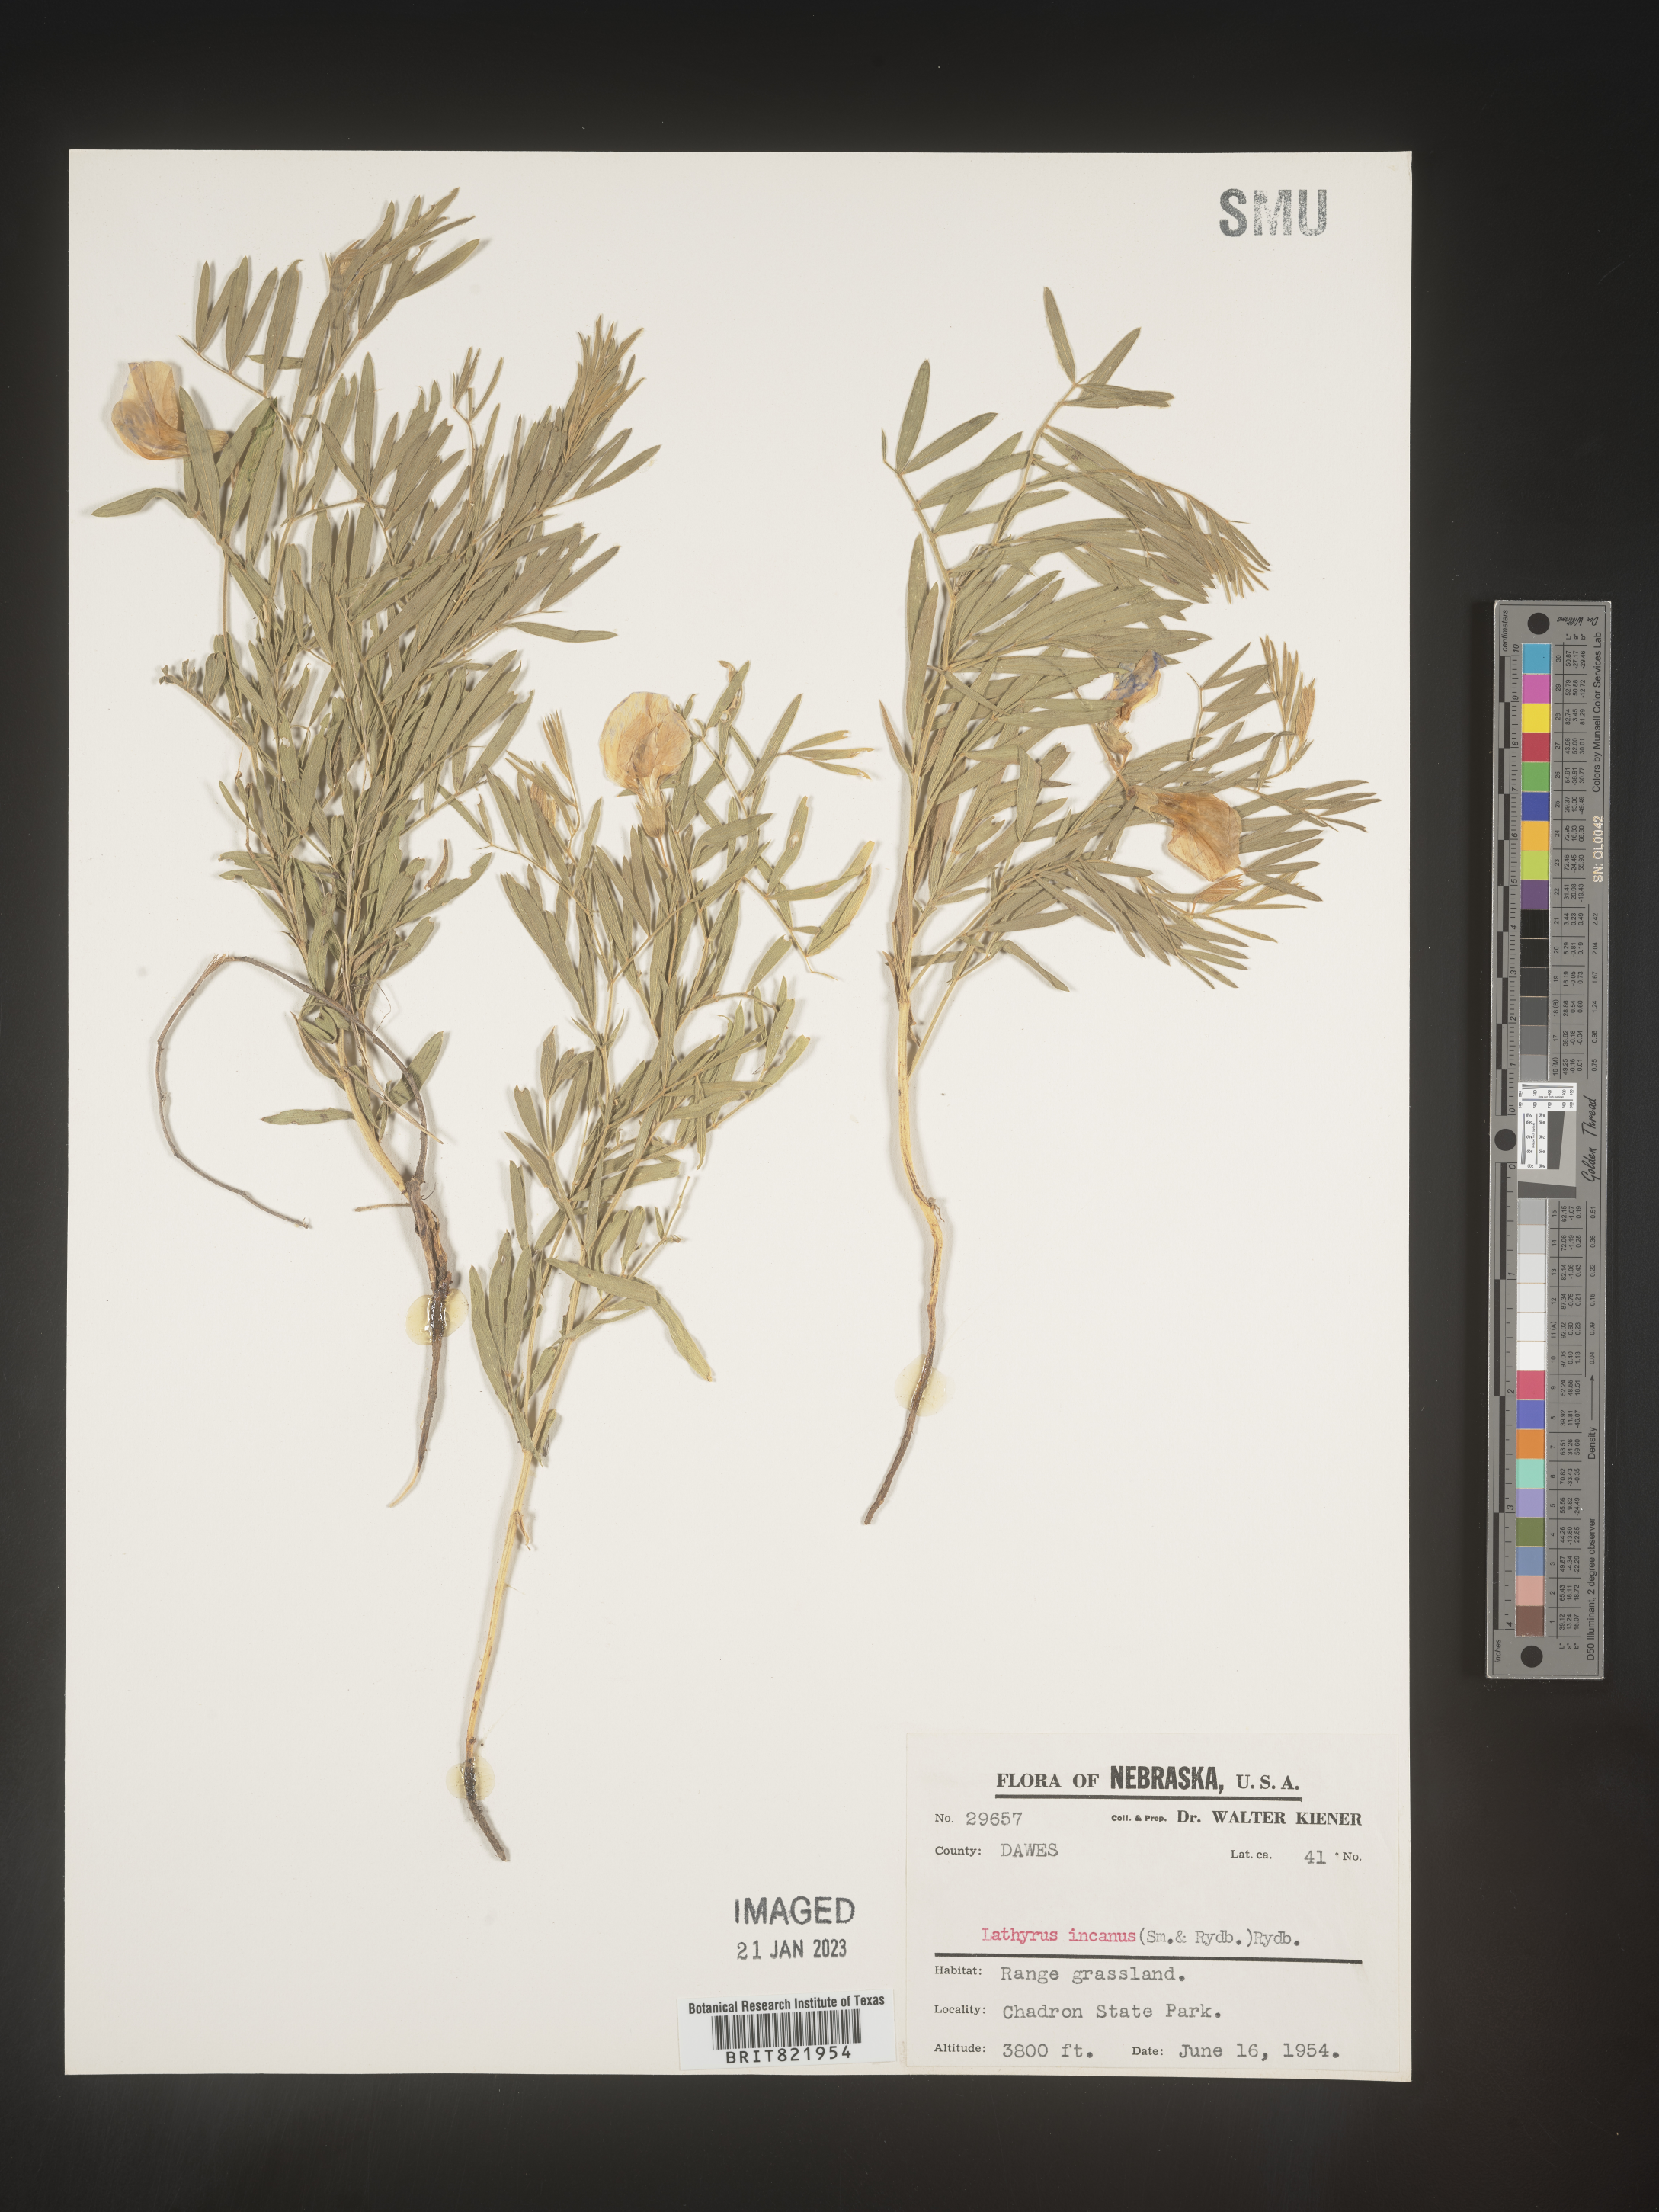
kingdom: Plantae
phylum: Tracheophyta
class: Magnoliopsida
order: Fabales
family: Fabaceae
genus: Lathyrus
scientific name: Lathyrus hirsutus
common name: Hairy vetchling
